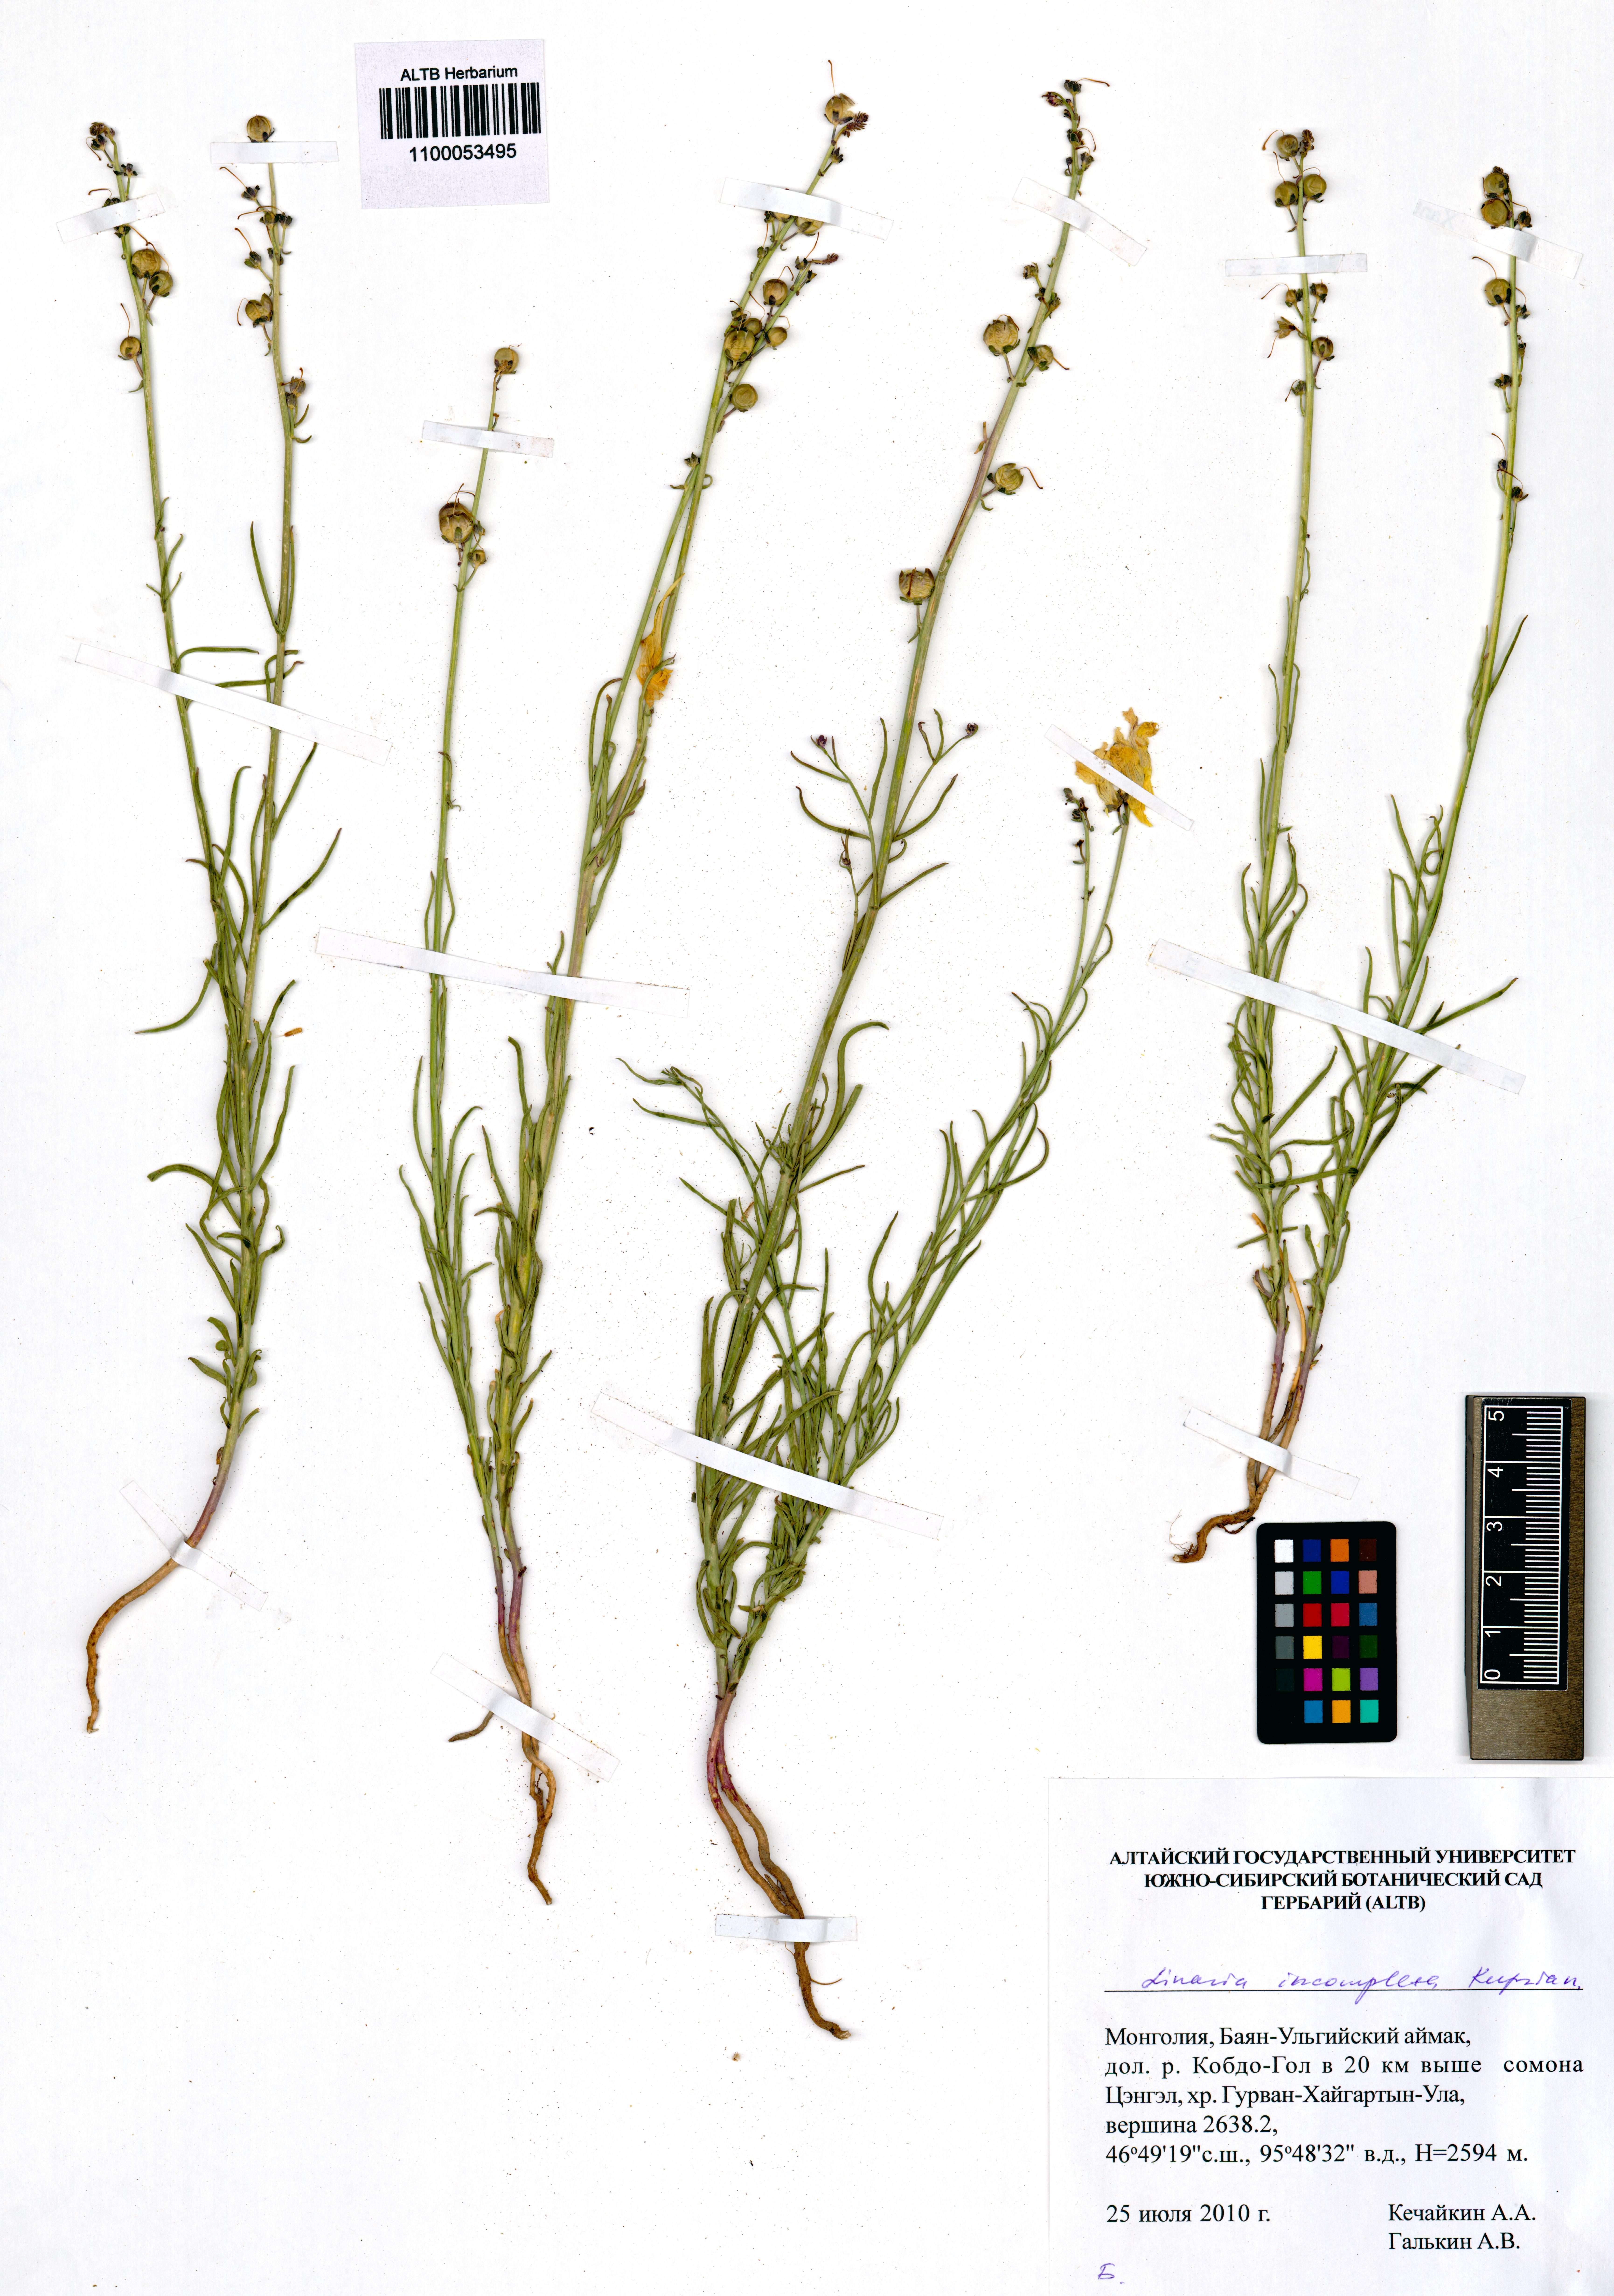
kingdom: Plantae
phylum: Tracheophyta
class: Magnoliopsida
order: Lamiales
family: Plantaginaceae
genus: Linaria
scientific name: Linaria incompleta
